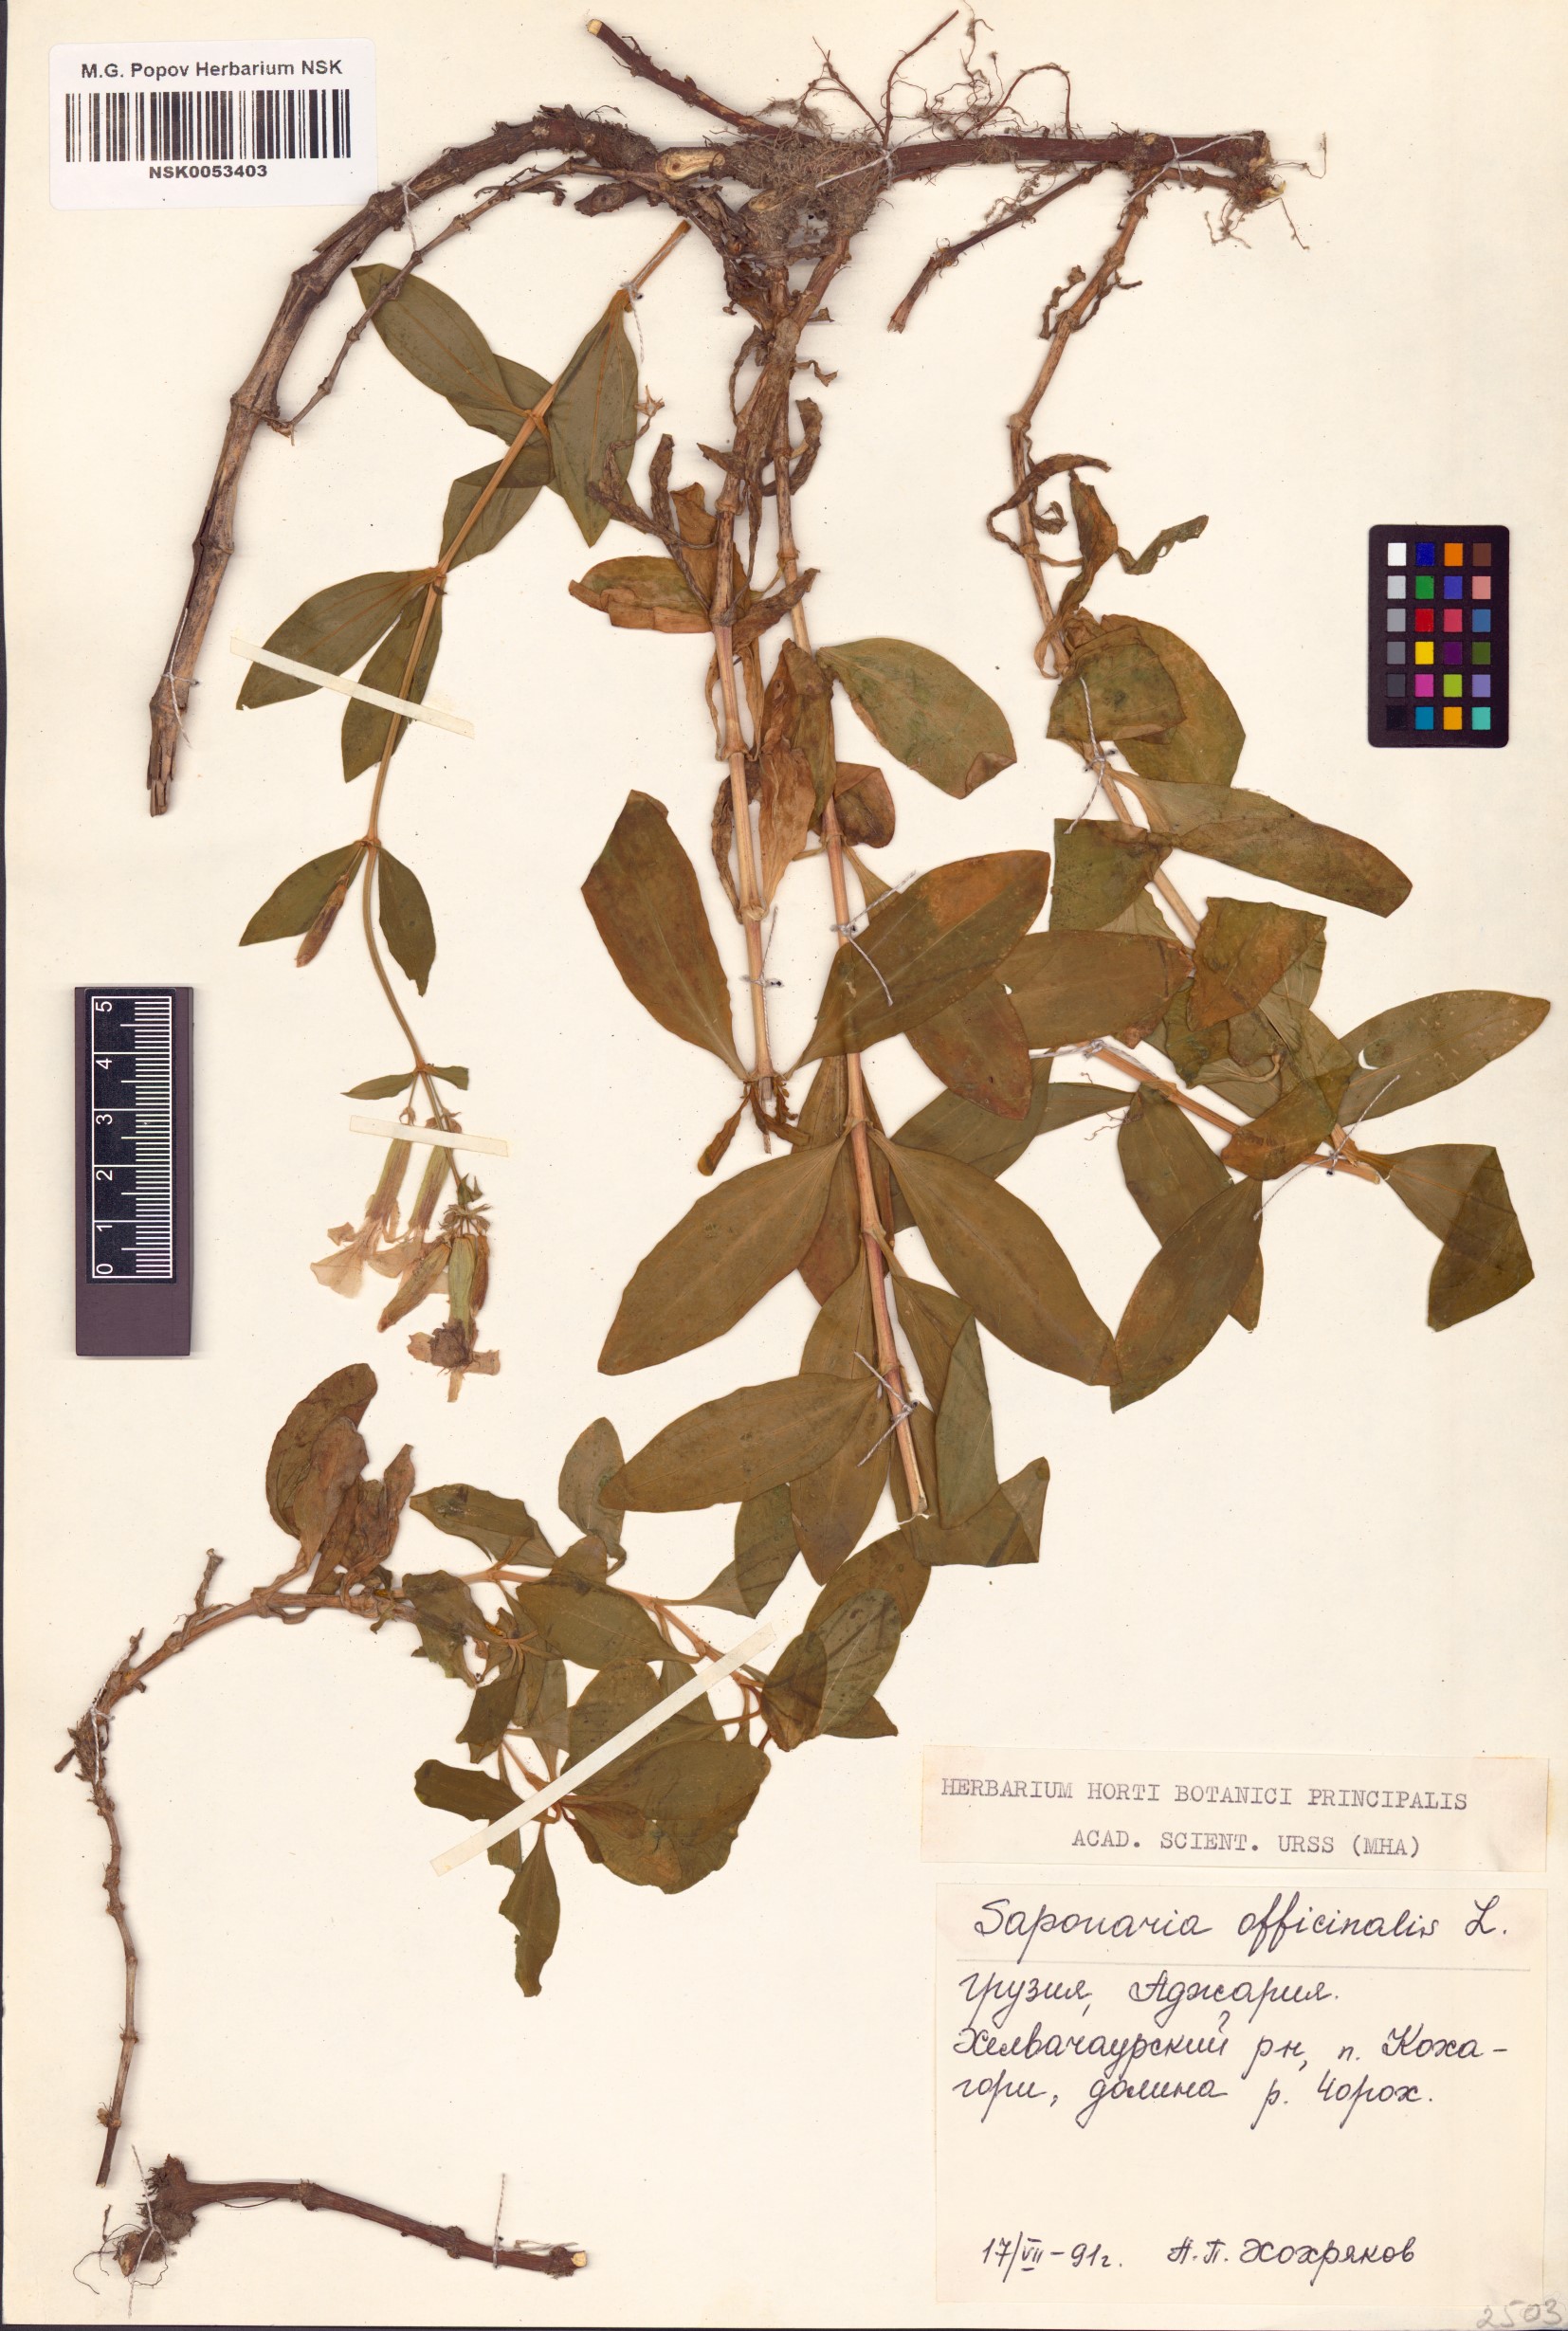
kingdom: Plantae
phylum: Tracheophyta
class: Magnoliopsida
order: Caryophyllales
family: Caryophyllaceae
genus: Saponaria
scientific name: Saponaria officinalis
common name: Soapwort
